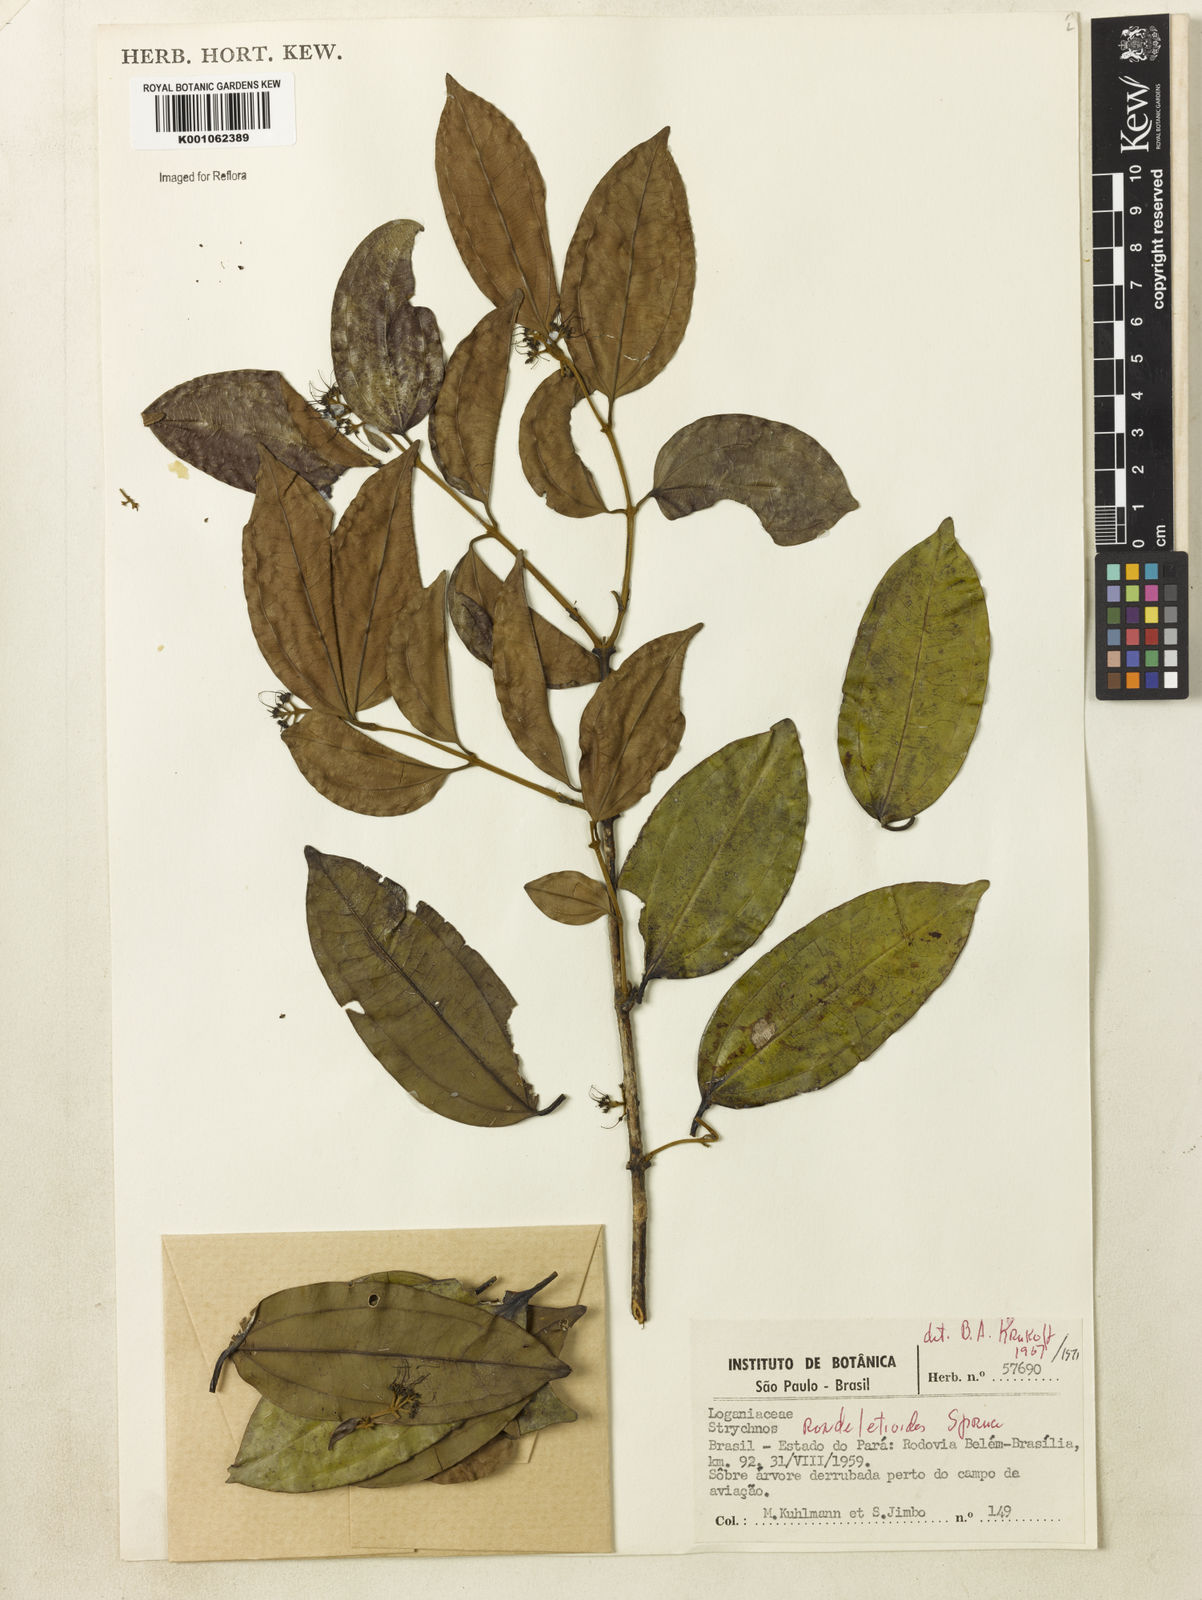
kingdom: Plantae
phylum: Tracheophyta
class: Magnoliopsida
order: Gentianales
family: Loganiaceae
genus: Strychnos
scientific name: Strychnos rondeletioides
